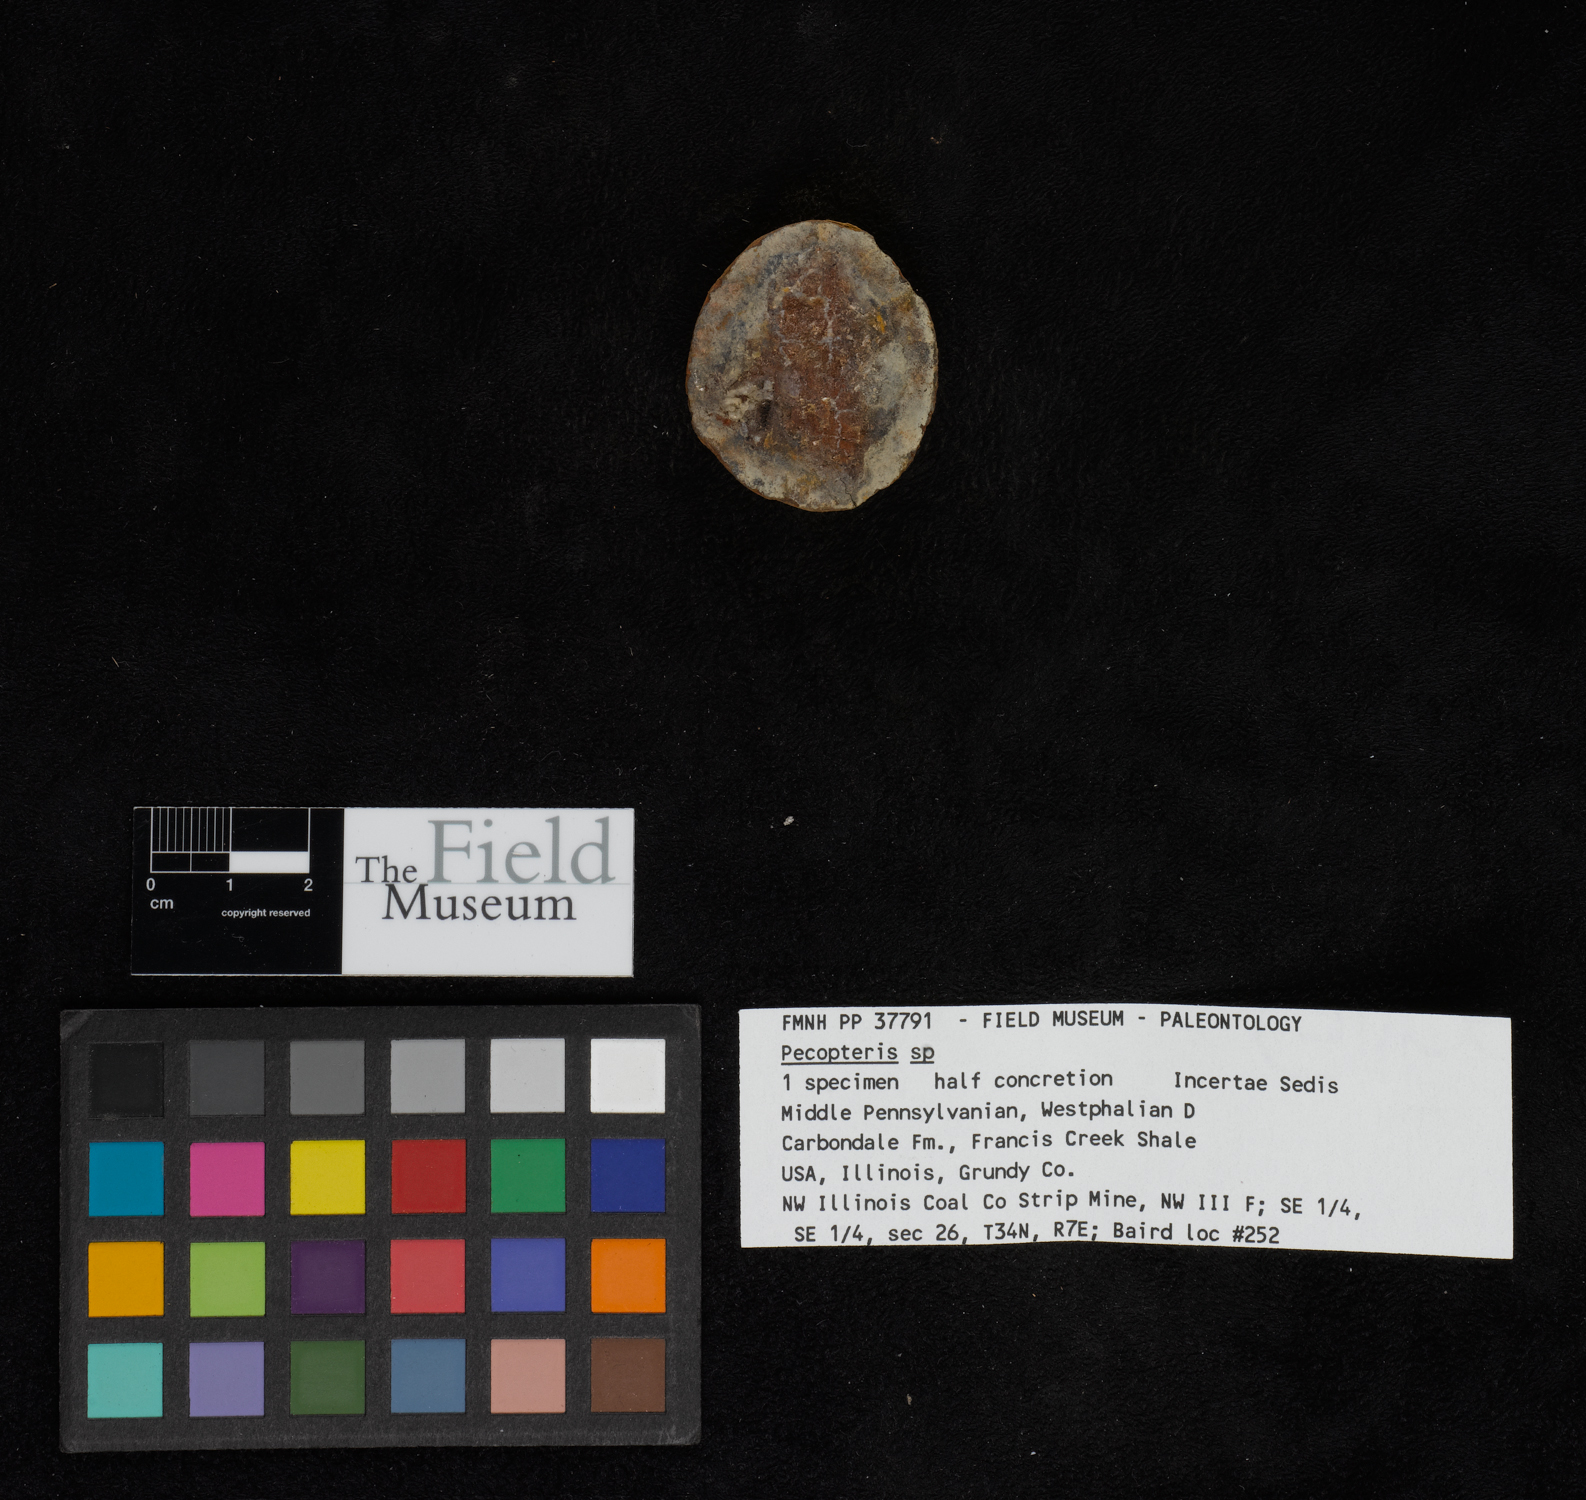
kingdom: Plantae
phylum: Tracheophyta
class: Polypodiopsida
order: Marattiales
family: Asterothecaceae
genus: Pecopteris
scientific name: Pecopteris
